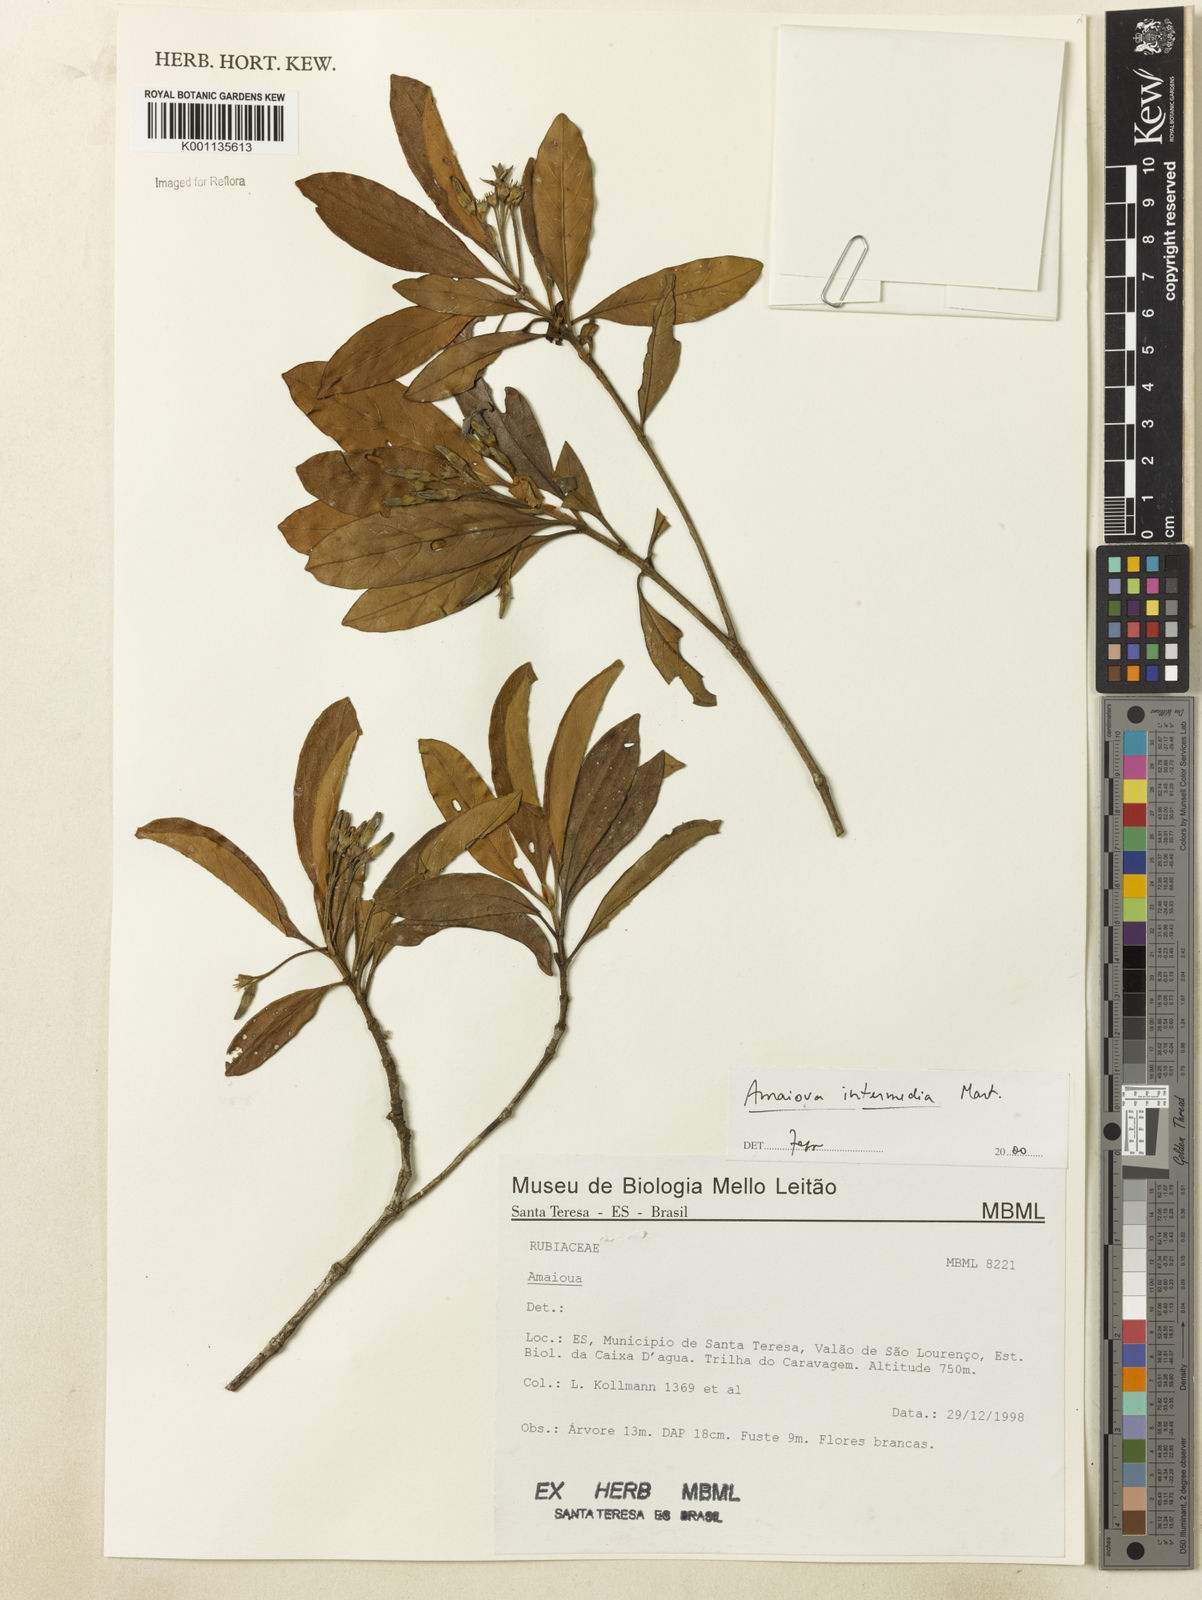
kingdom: Plantae
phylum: Tracheophyta
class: Magnoliopsida
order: Gentianales
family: Rubiaceae
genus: Amaioua
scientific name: Amaioua intermedia
